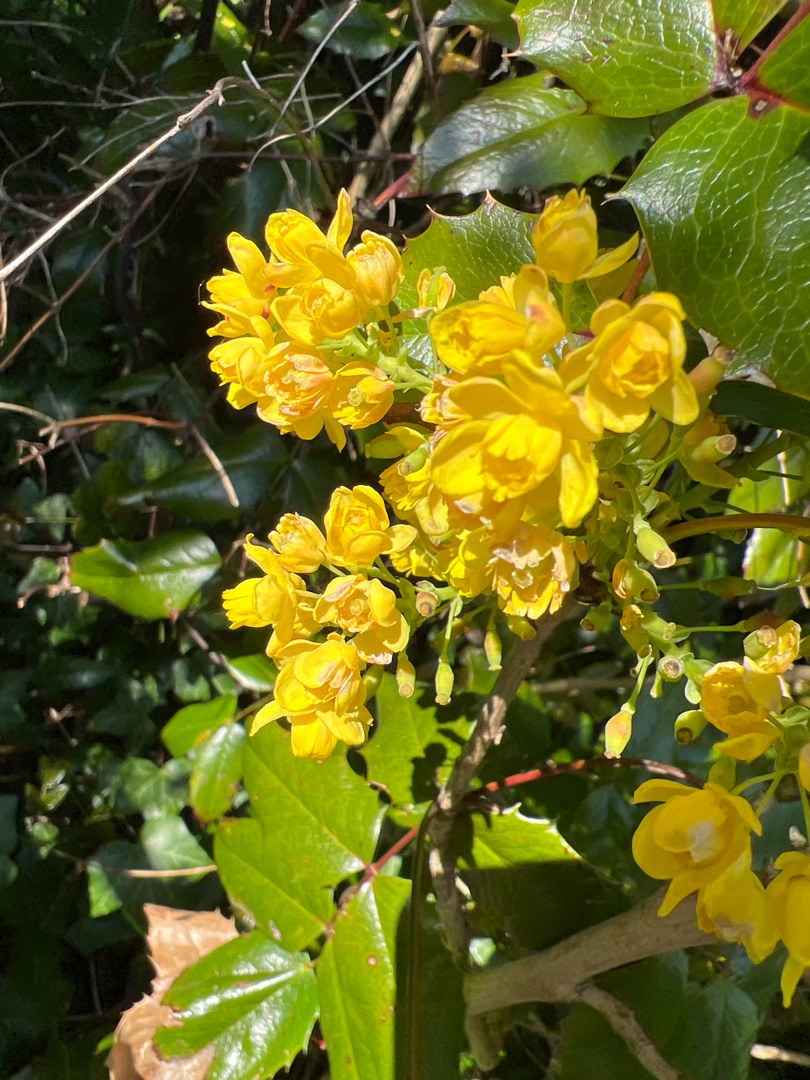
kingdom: Plantae
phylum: Tracheophyta
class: Magnoliopsida
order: Ranunculales
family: Berberidaceae
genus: Mahonia
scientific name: Mahonia aquifolium
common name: Almindelig mahonie
